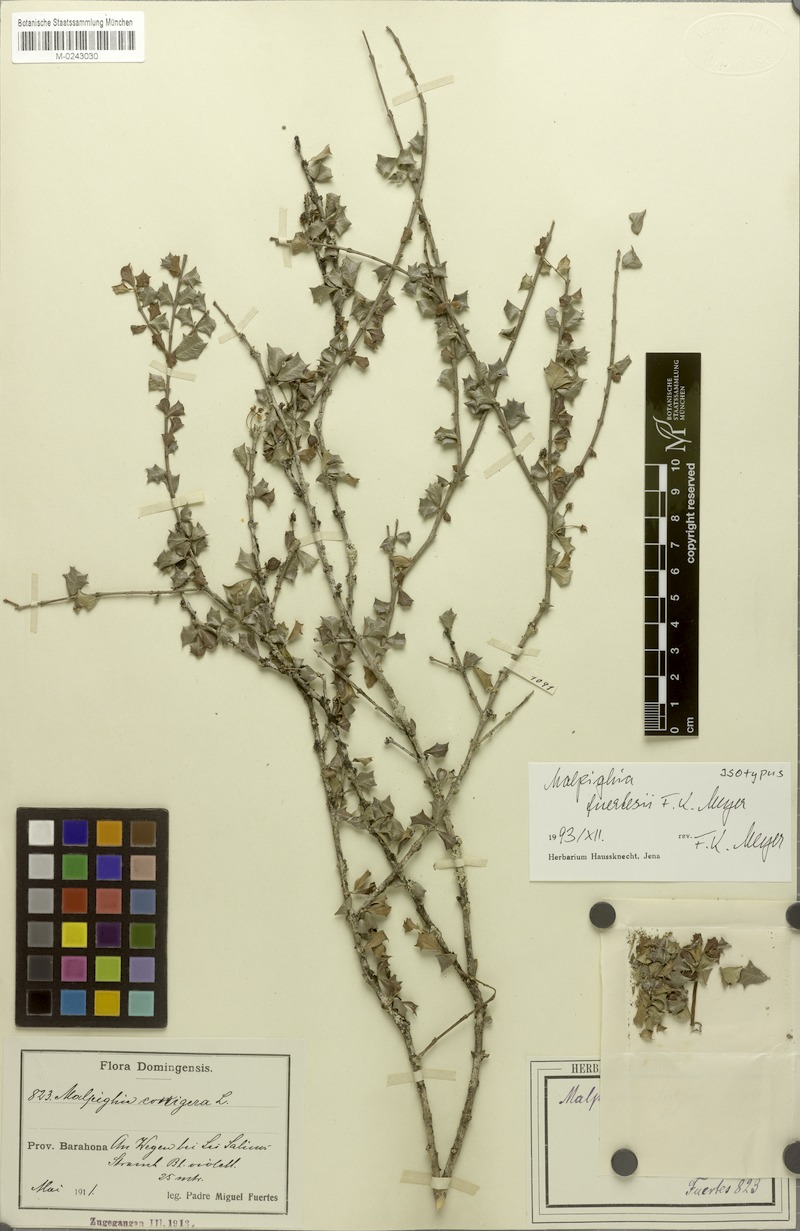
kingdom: Plantae
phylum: Tracheophyta
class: Magnoliopsida
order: Malpighiales
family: Malpighiaceae
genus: Malpighia
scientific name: Malpighia coccigera
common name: Singapore holly
